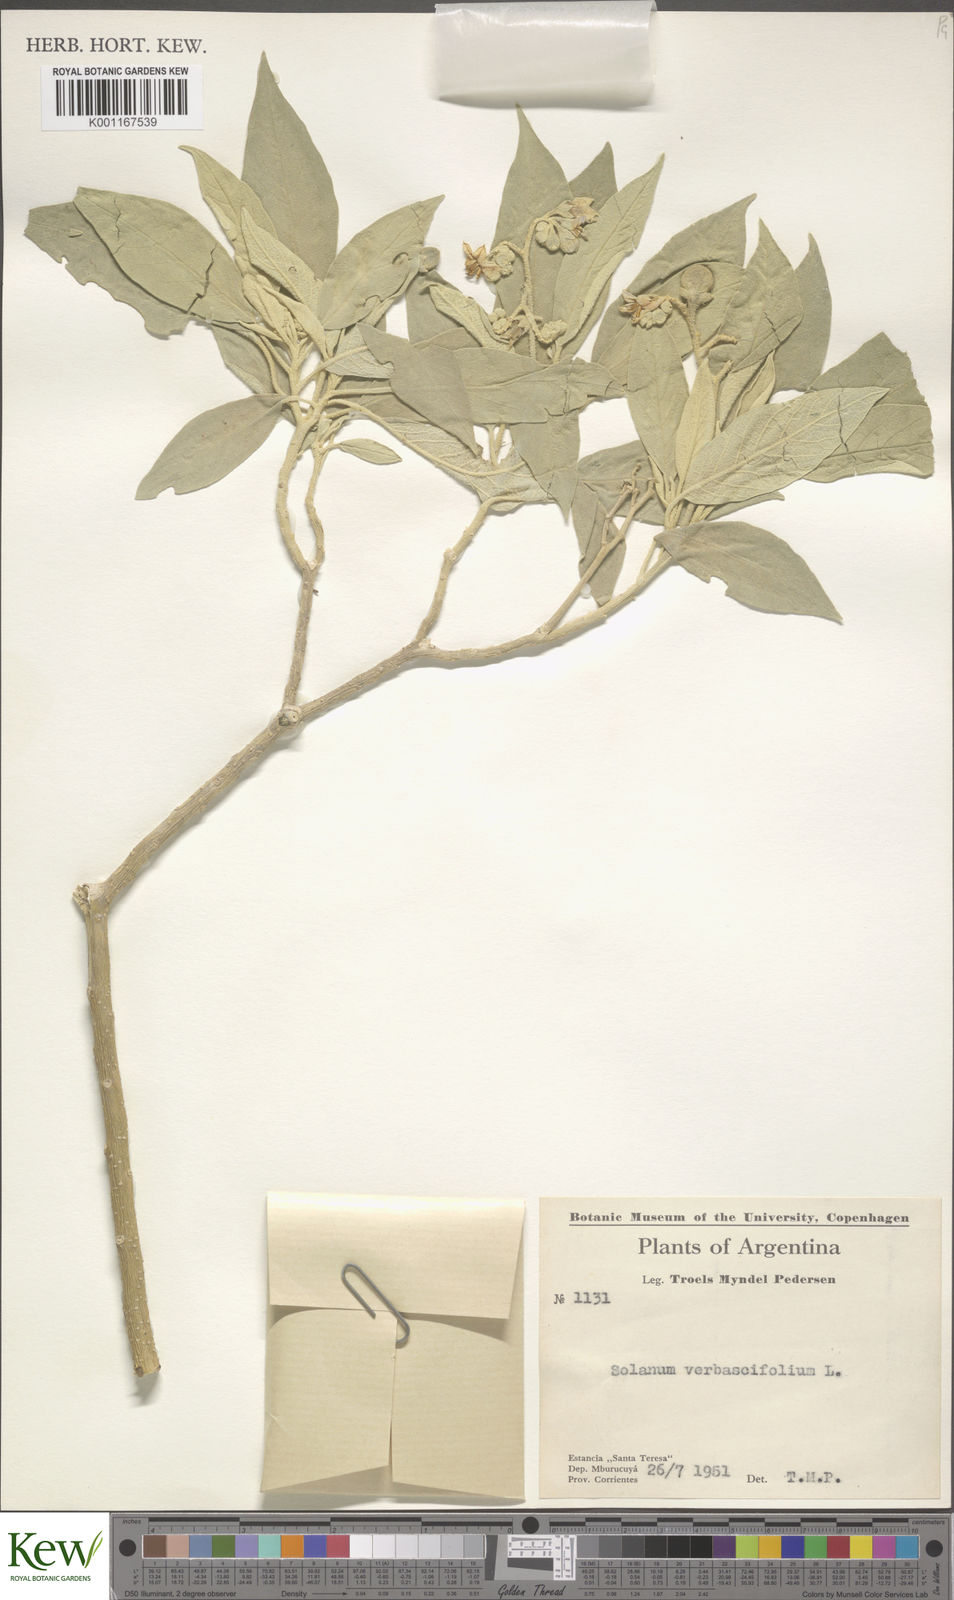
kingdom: Plantae
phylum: Tracheophyta
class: Magnoliopsida
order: Solanales
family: Solanaceae
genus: Solanum
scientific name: Solanum erianthum
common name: Tobacco-tree
